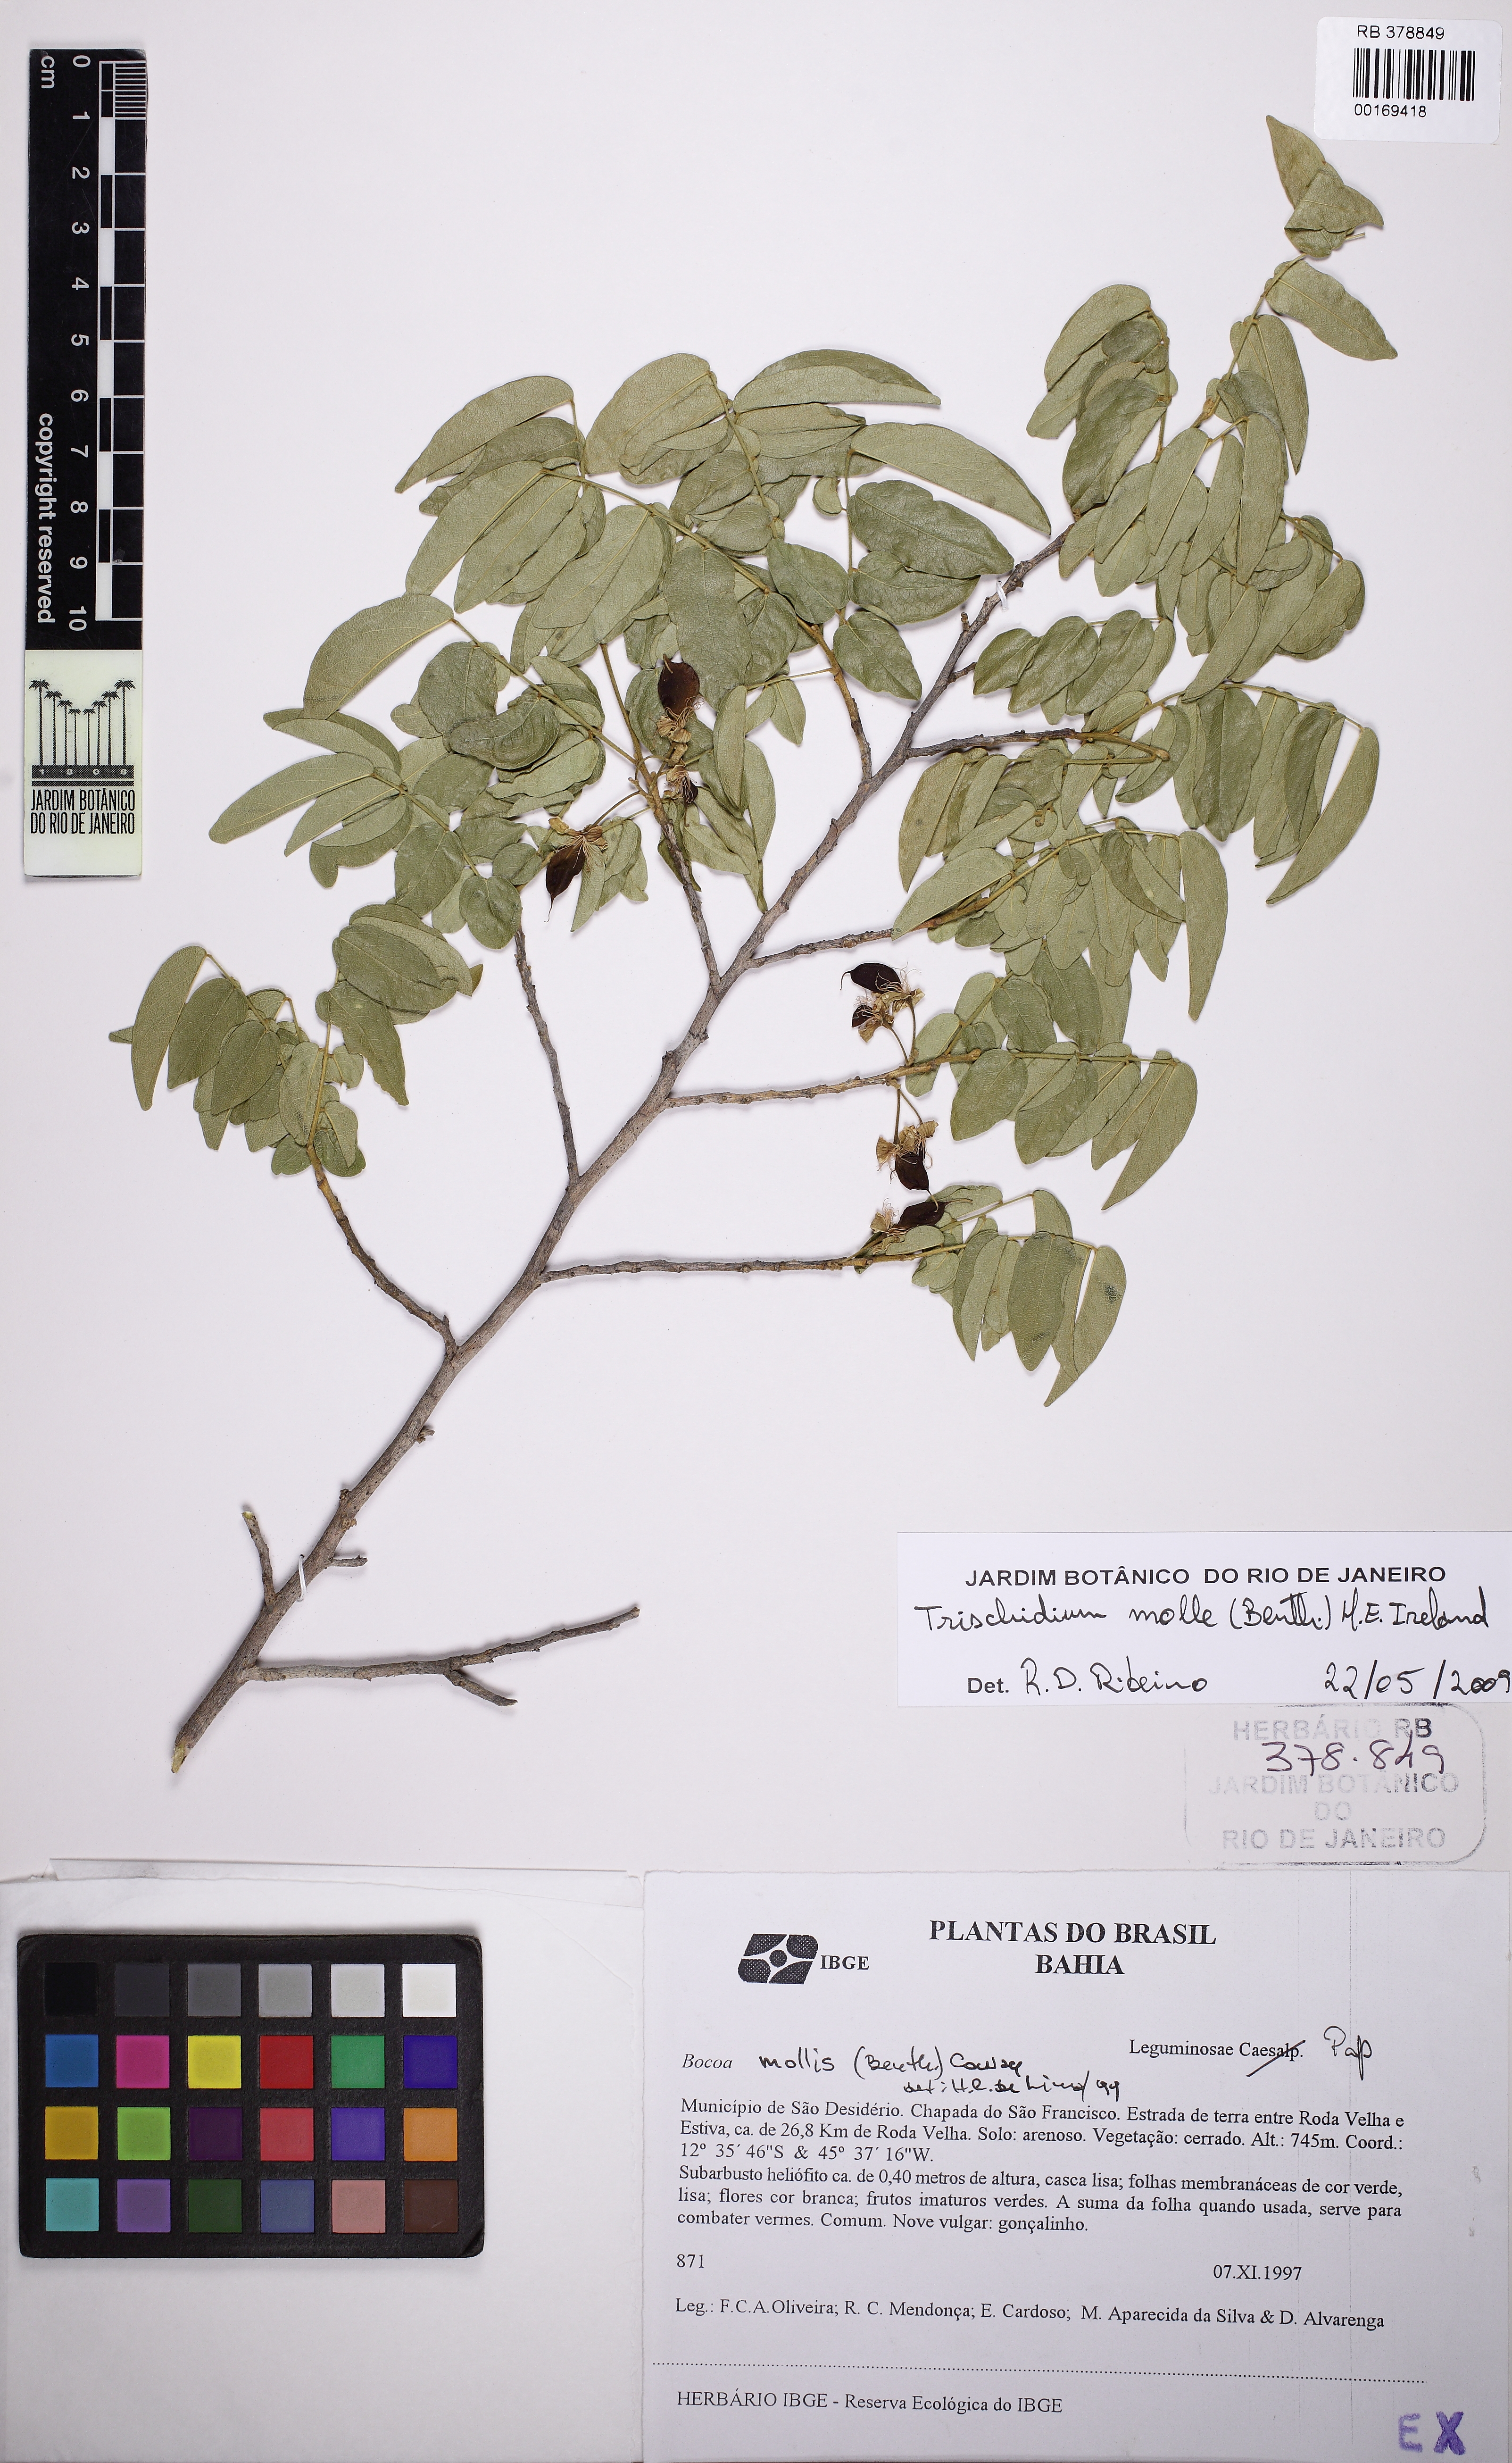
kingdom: Plantae
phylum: Tracheophyta
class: Magnoliopsida
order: Fabales
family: Fabaceae
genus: Trischidium
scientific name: Trischidium molle
